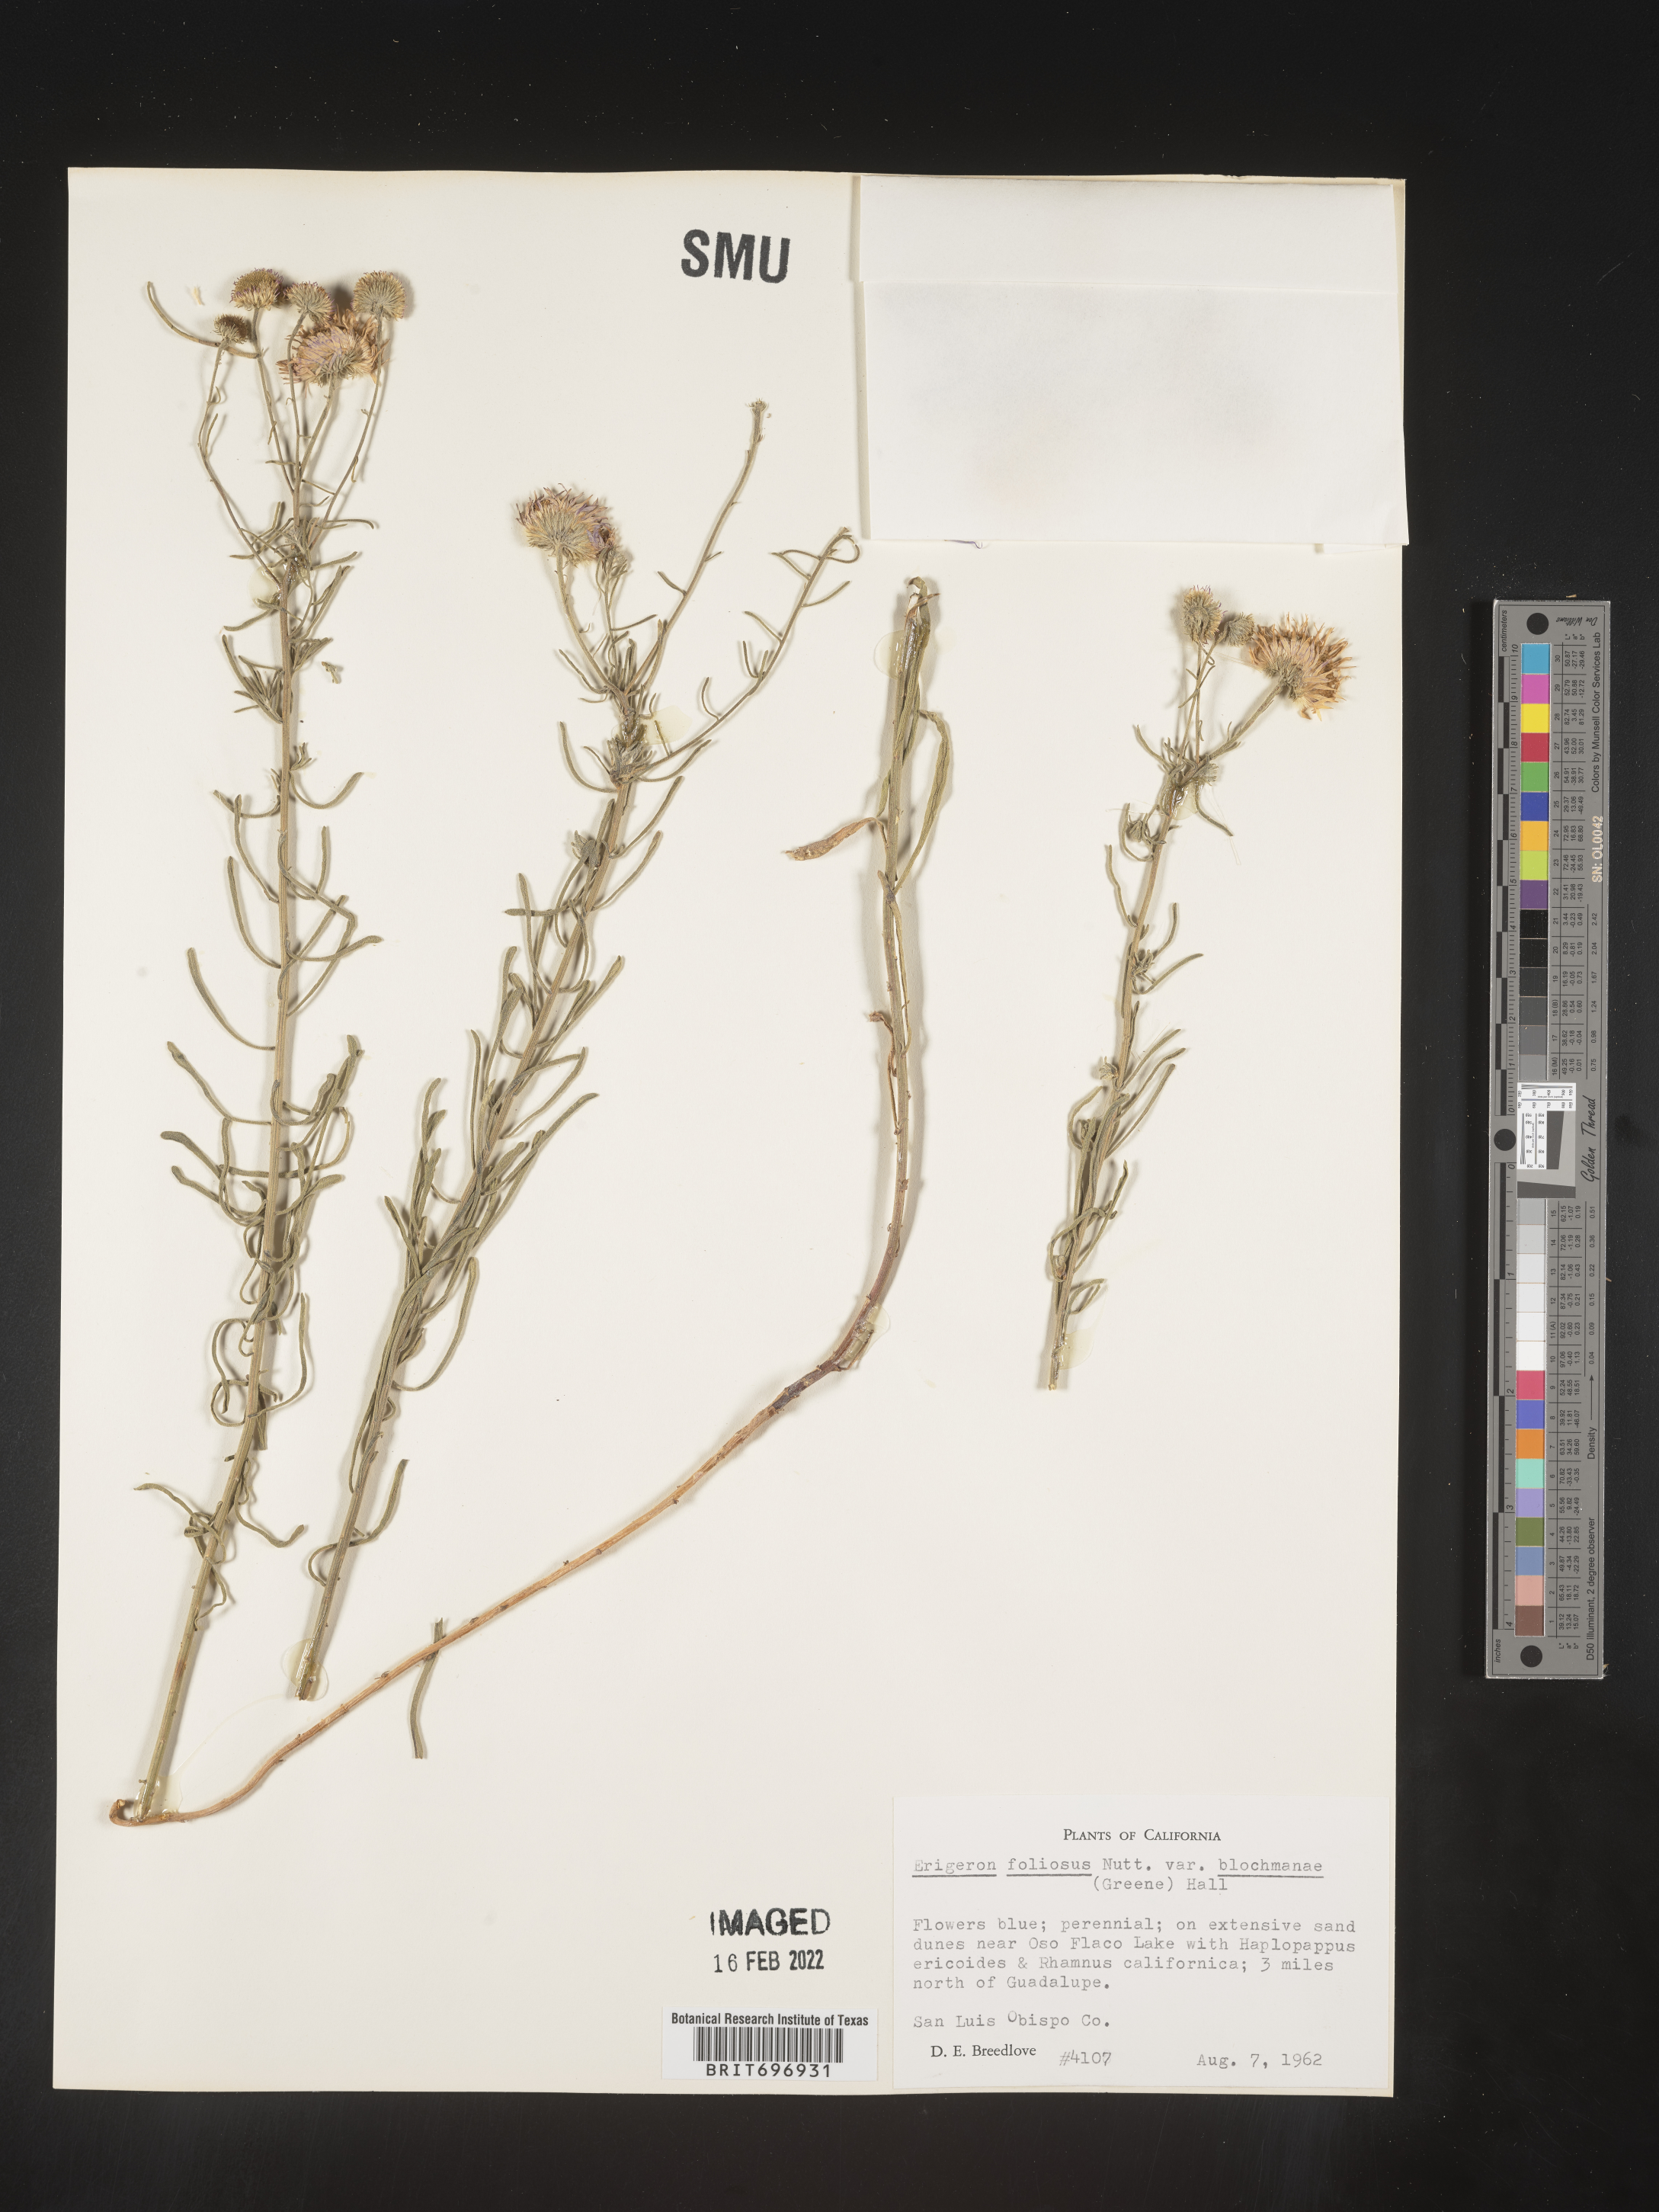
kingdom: Plantae
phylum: Tracheophyta
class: Magnoliopsida
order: Asterales
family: Asteraceae
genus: Erigeron
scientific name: Erigeron blochmaniae
